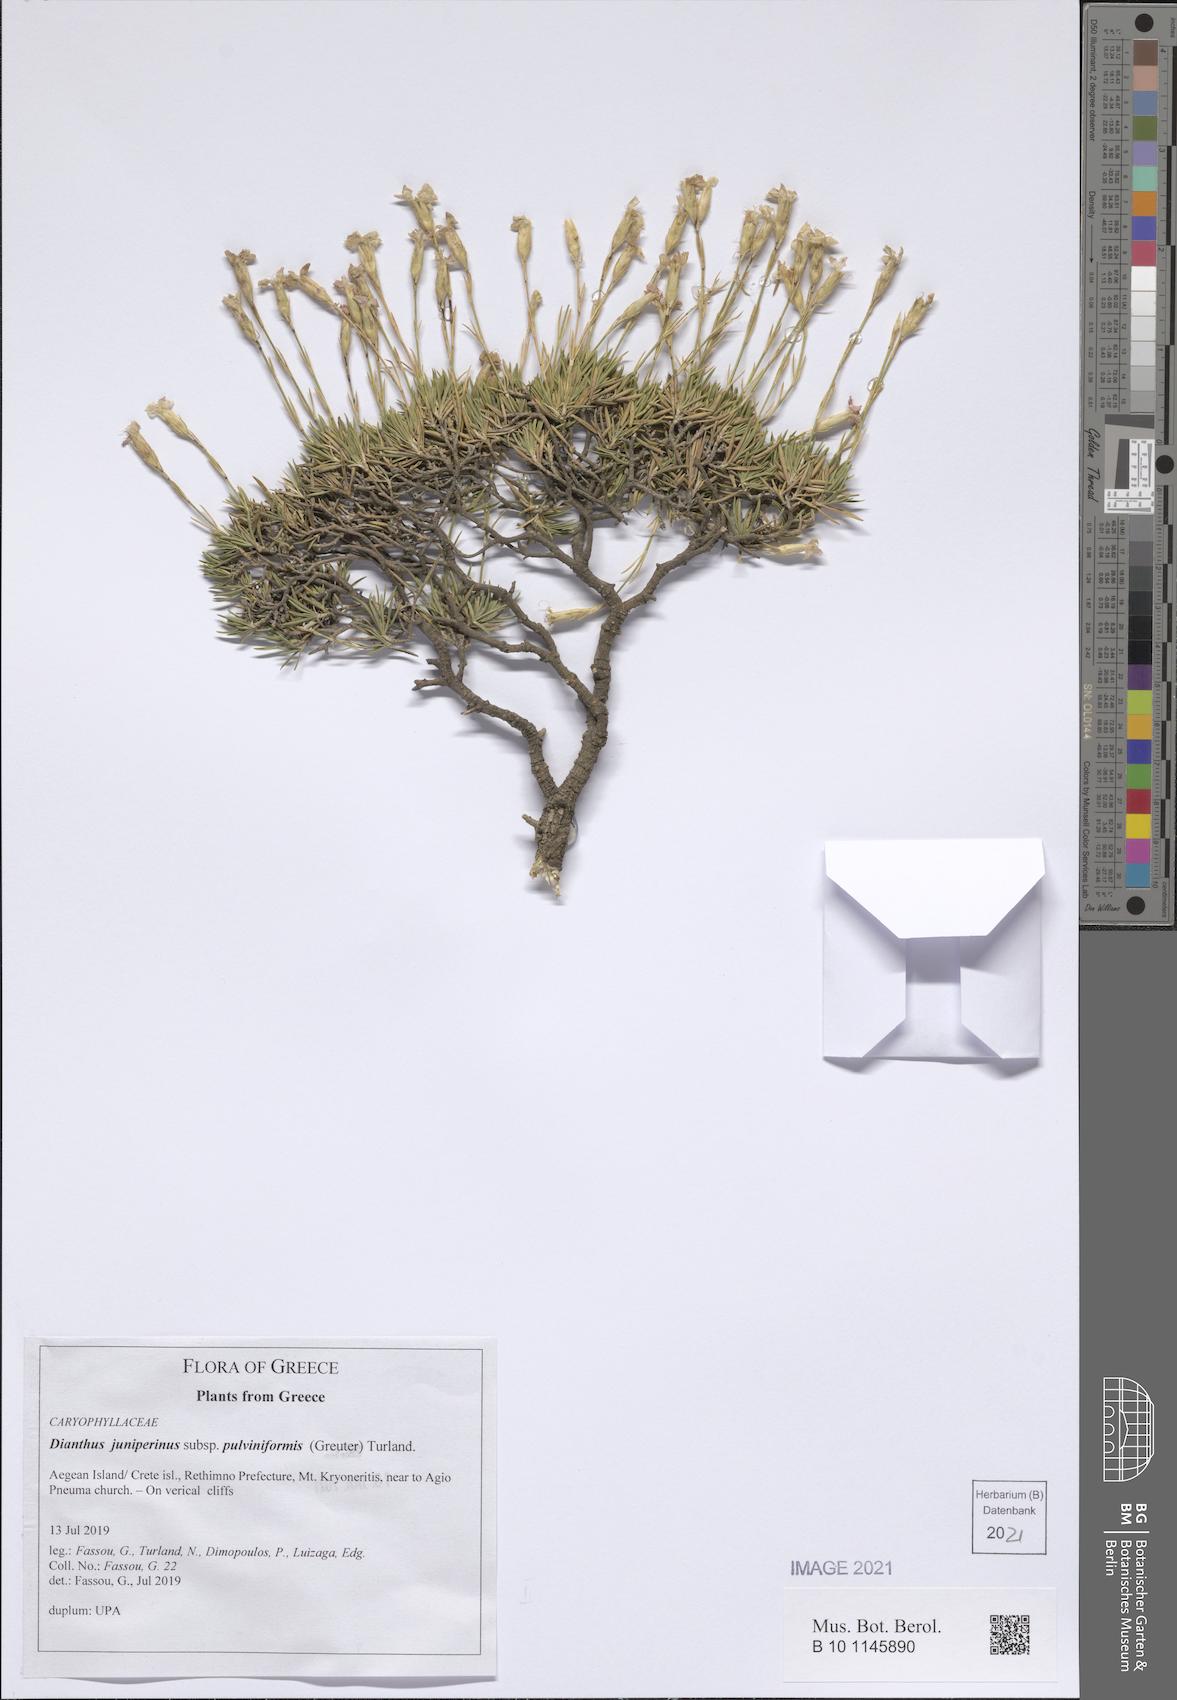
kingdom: Plantae
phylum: Tracheophyta
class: Magnoliopsida
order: Caryophyllales
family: Caryophyllaceae
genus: Dianthus
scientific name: Dianthus juniperinus
